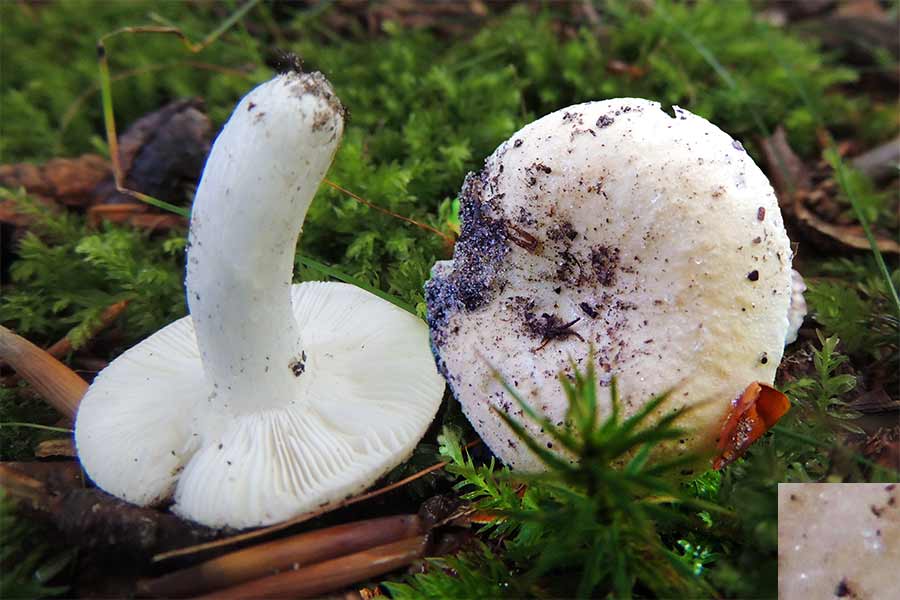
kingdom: Fungi
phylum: Basidiomycota
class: Agaricomycetes
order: Russulales
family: Russulaceae
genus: Russula
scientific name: Russula roseoaurantia
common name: kornet skørhat
